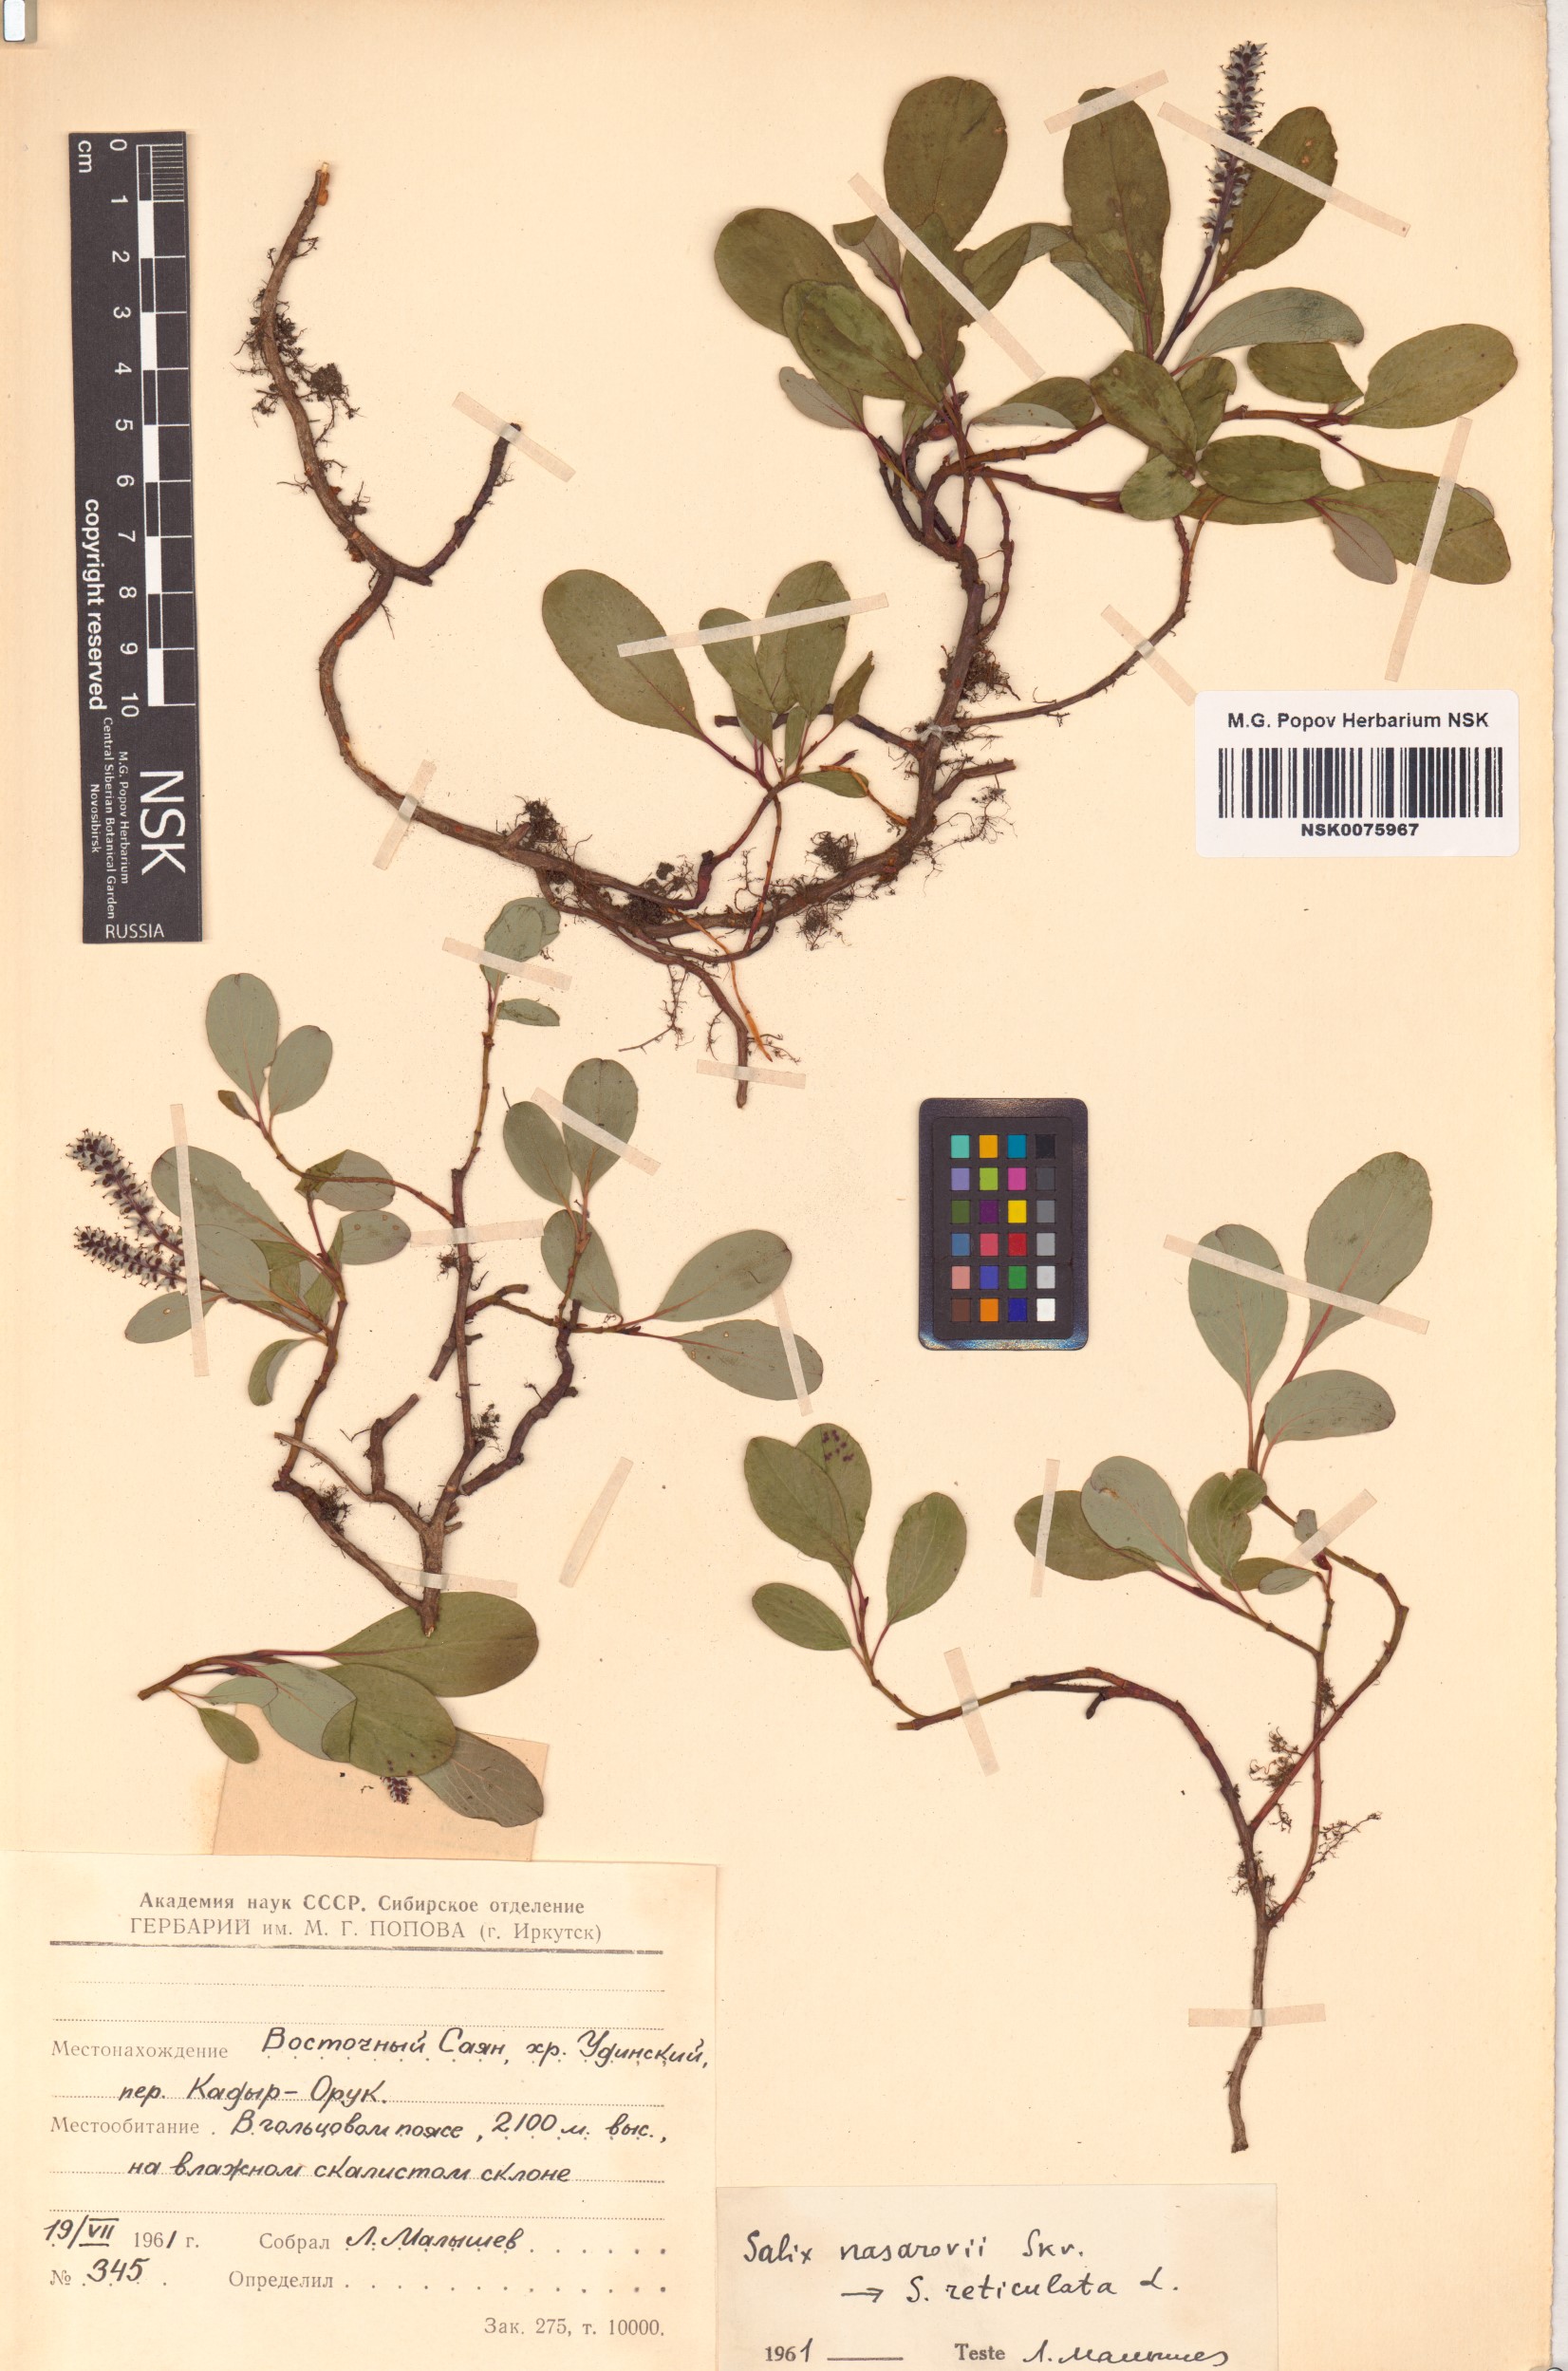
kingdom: Plantae
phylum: Tracheophyta
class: Magnoliopsida
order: Malpighiales
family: Salicaceae
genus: Salix
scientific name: Salix nasarovii
